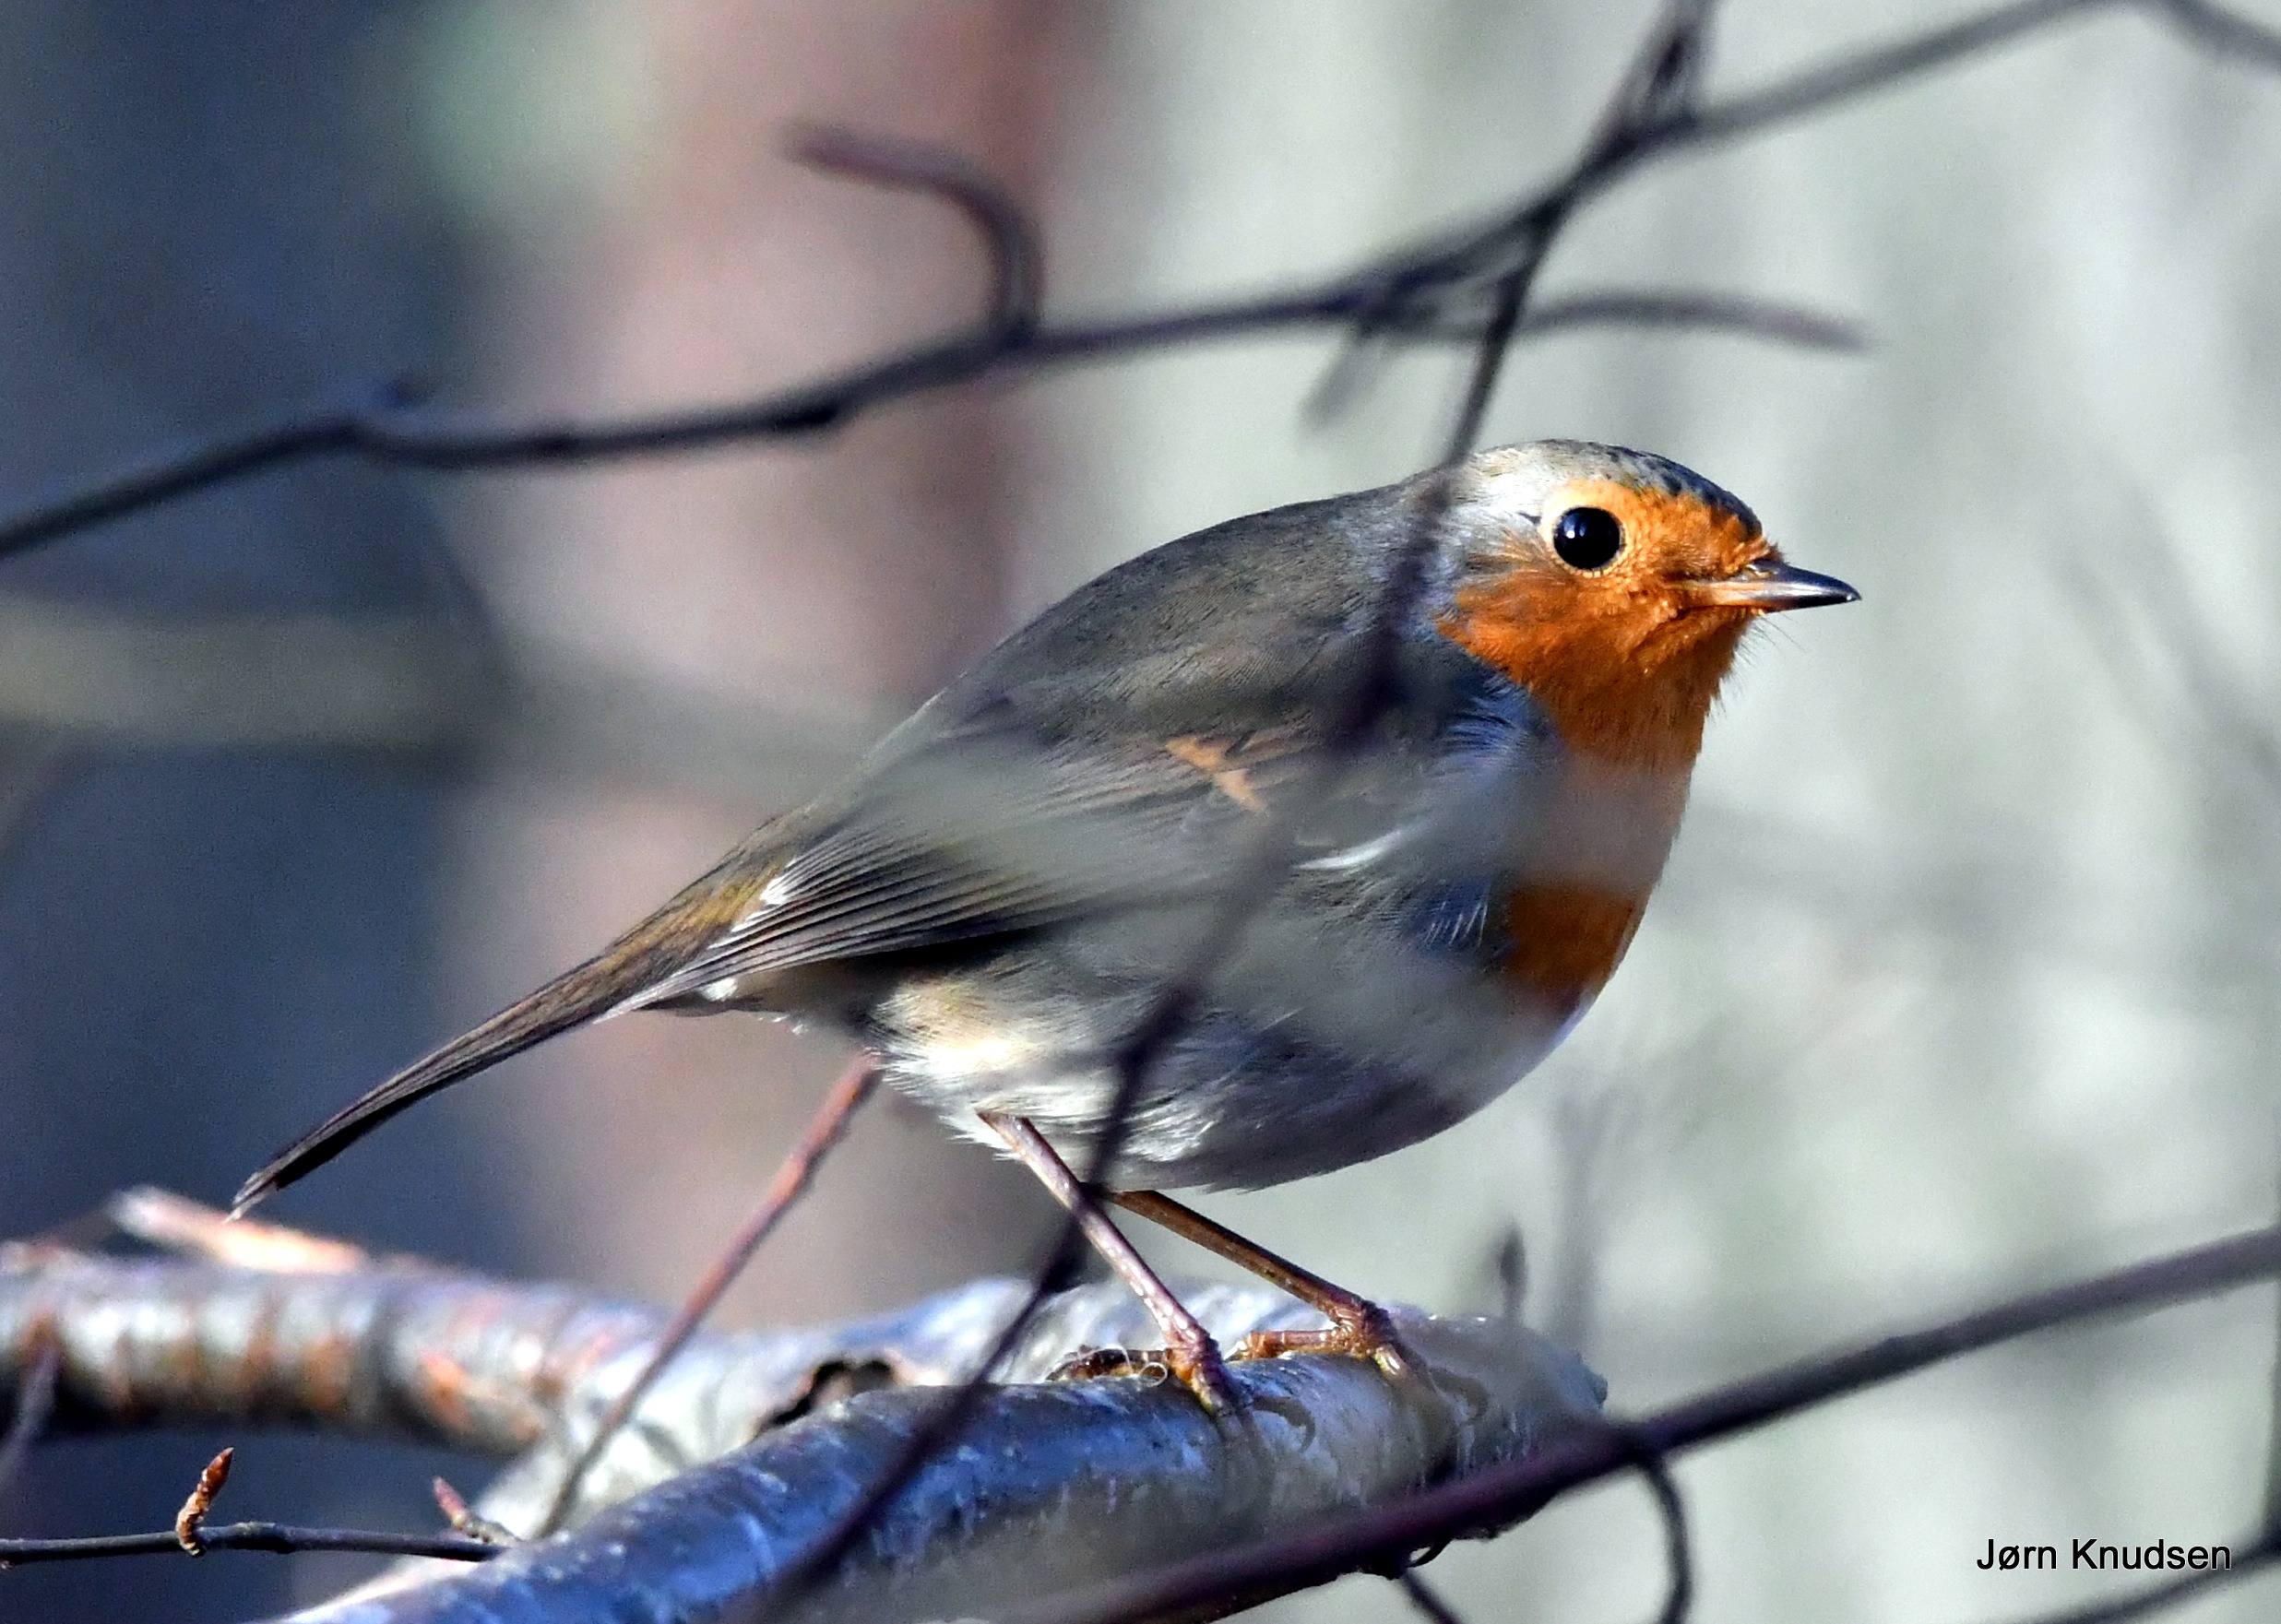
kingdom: Animalia
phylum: Chordata
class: Aves
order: Passeriformes
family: Muscicapidae
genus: Erithacus
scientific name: Erithacus rubecula
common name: Rødhals/rødkælk
